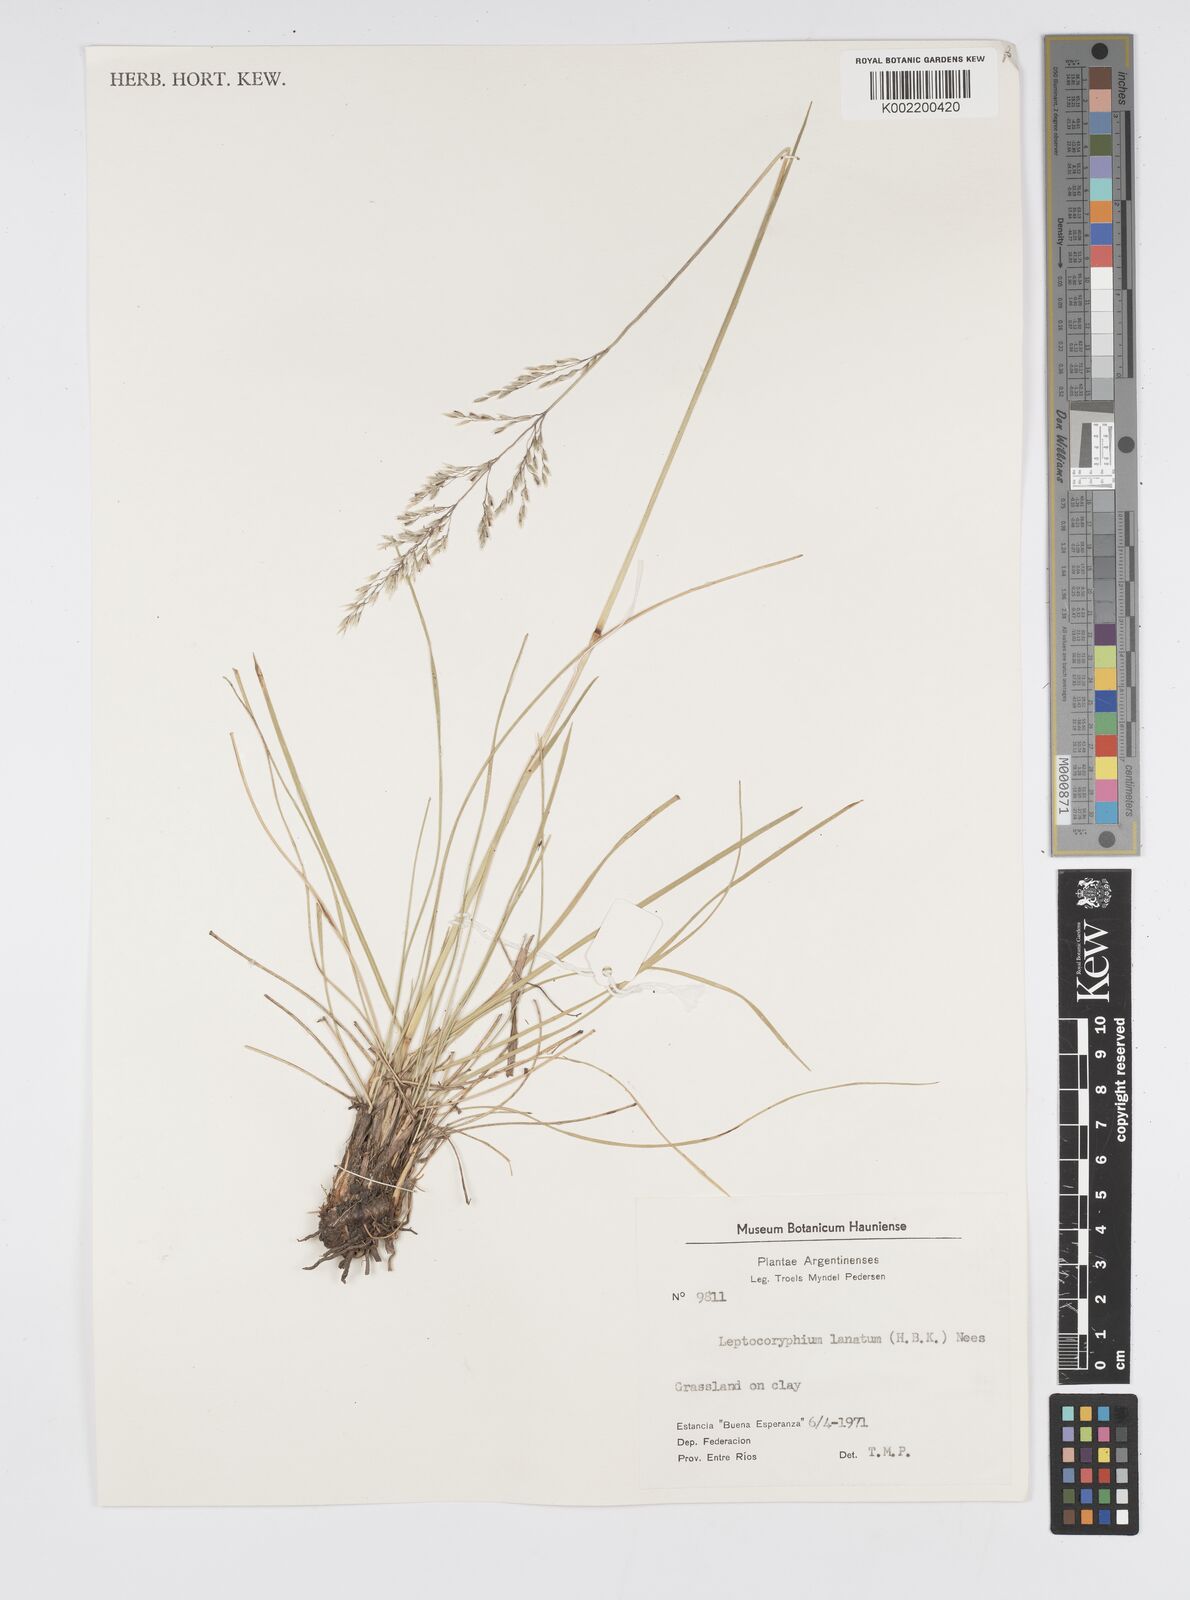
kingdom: Plantae
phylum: Tracheophyta
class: Liliopsida
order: Poales
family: Poaceae
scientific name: Poaceae
